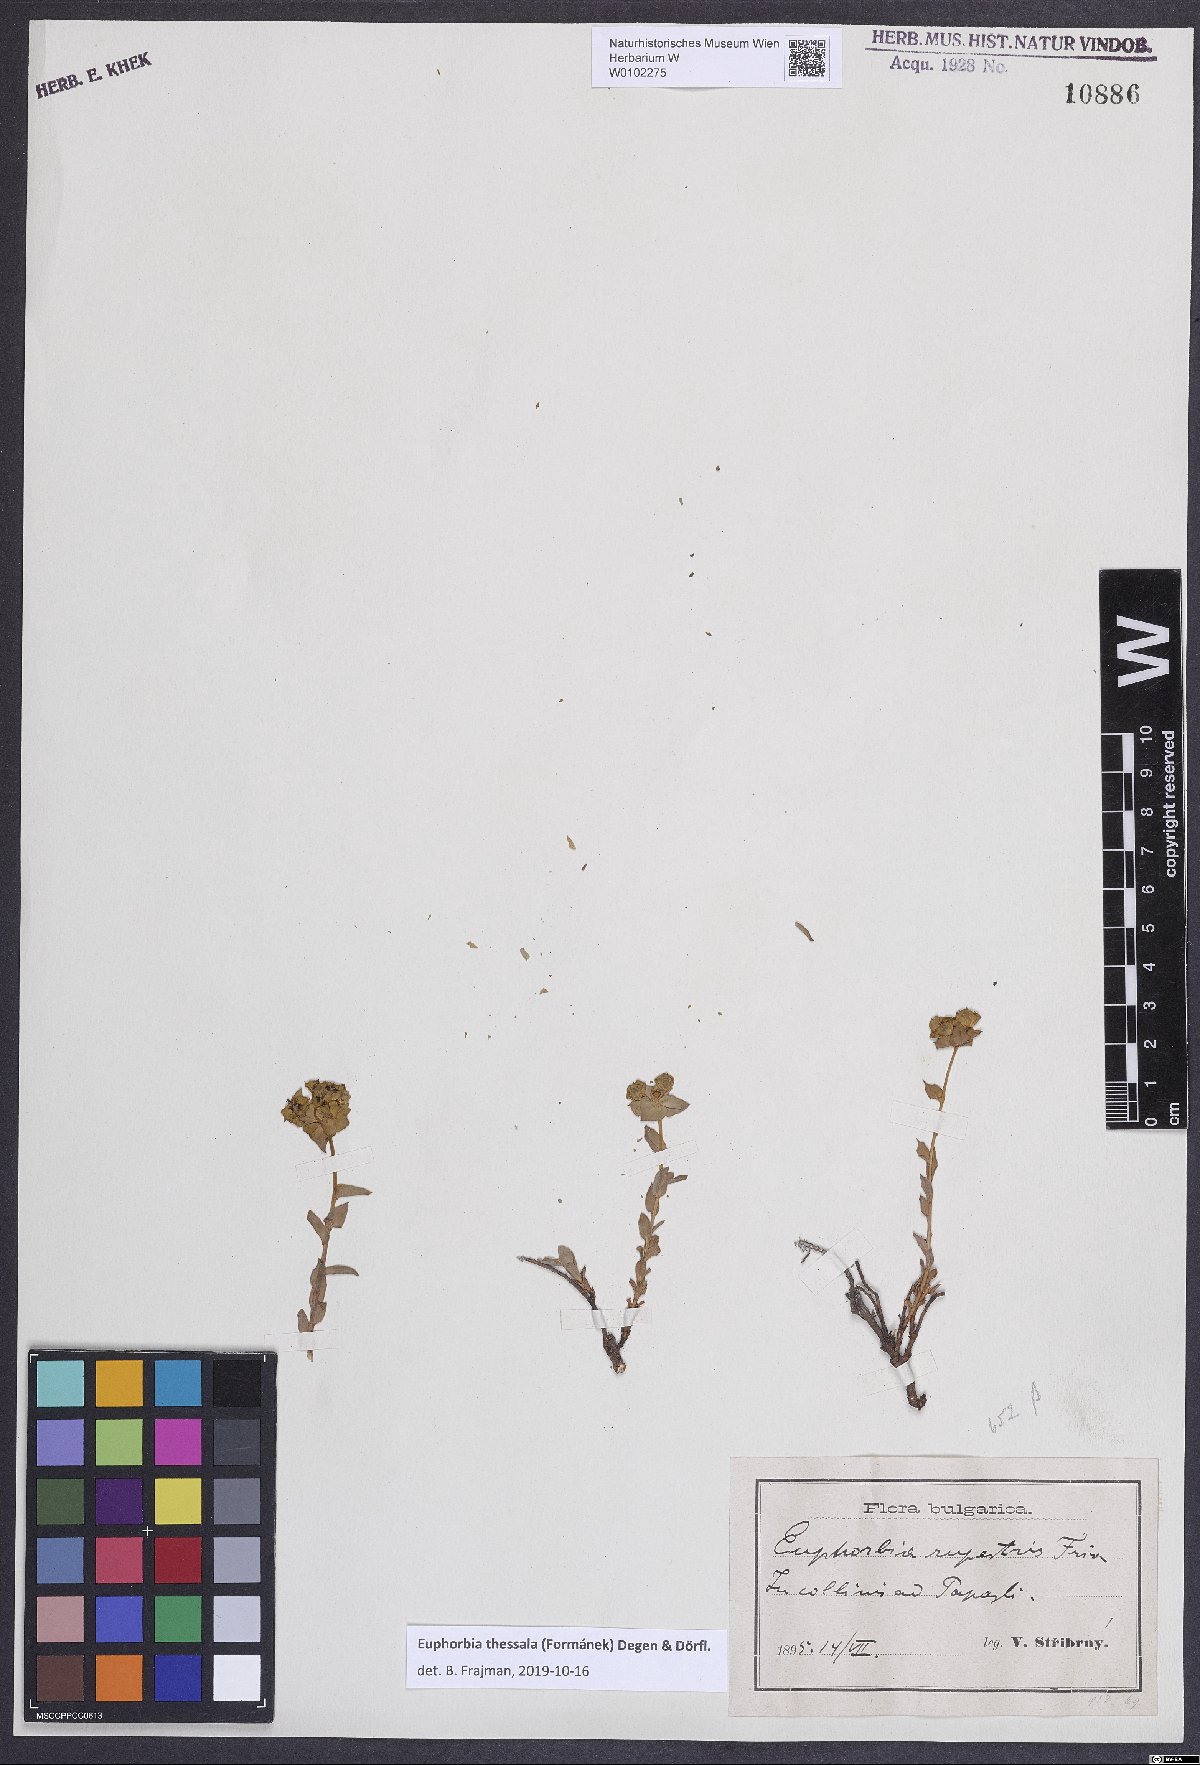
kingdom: Plantae
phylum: Tracheophyta
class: Magnoliopsida
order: Malpighiales
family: Euphorbiaceae
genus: Euphorbia
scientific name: Euphorbia barrelieri
